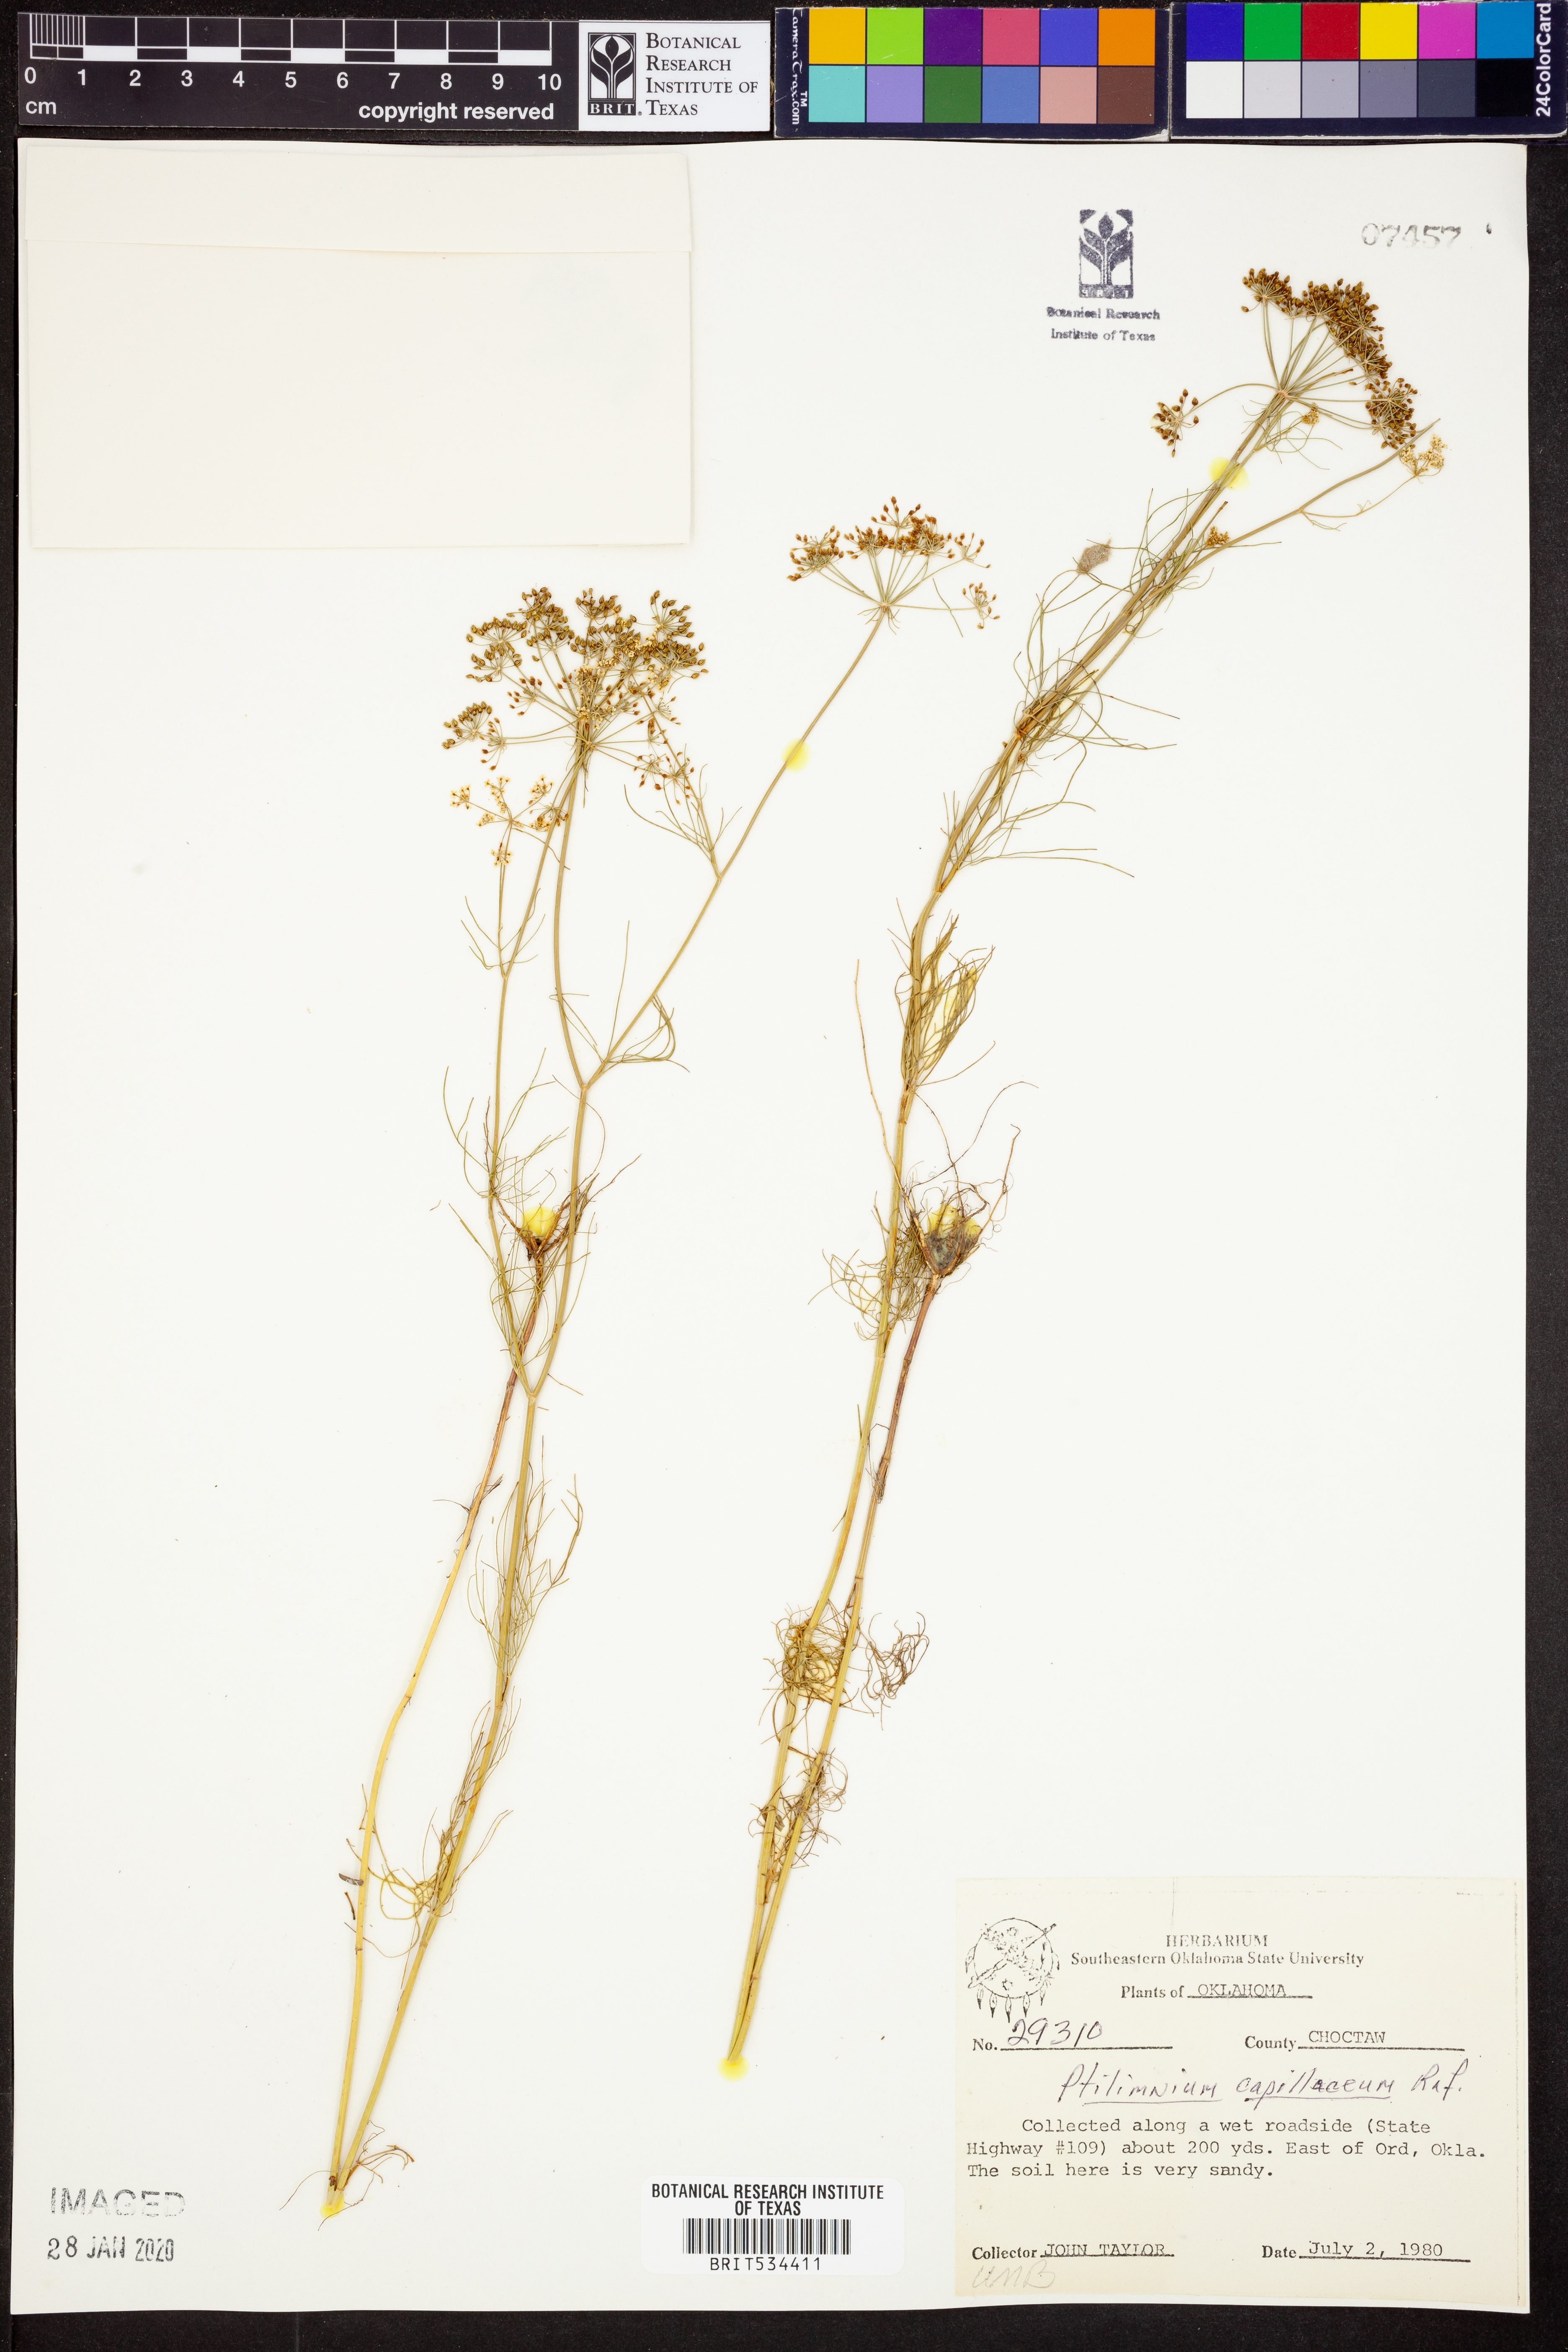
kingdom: Plantae
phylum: Tracheophyta
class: Magnoliopsida
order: Apiales
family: Apiaceae
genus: Ptilimnium
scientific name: Ptilimnium capillaceum
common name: Herbwilliam
